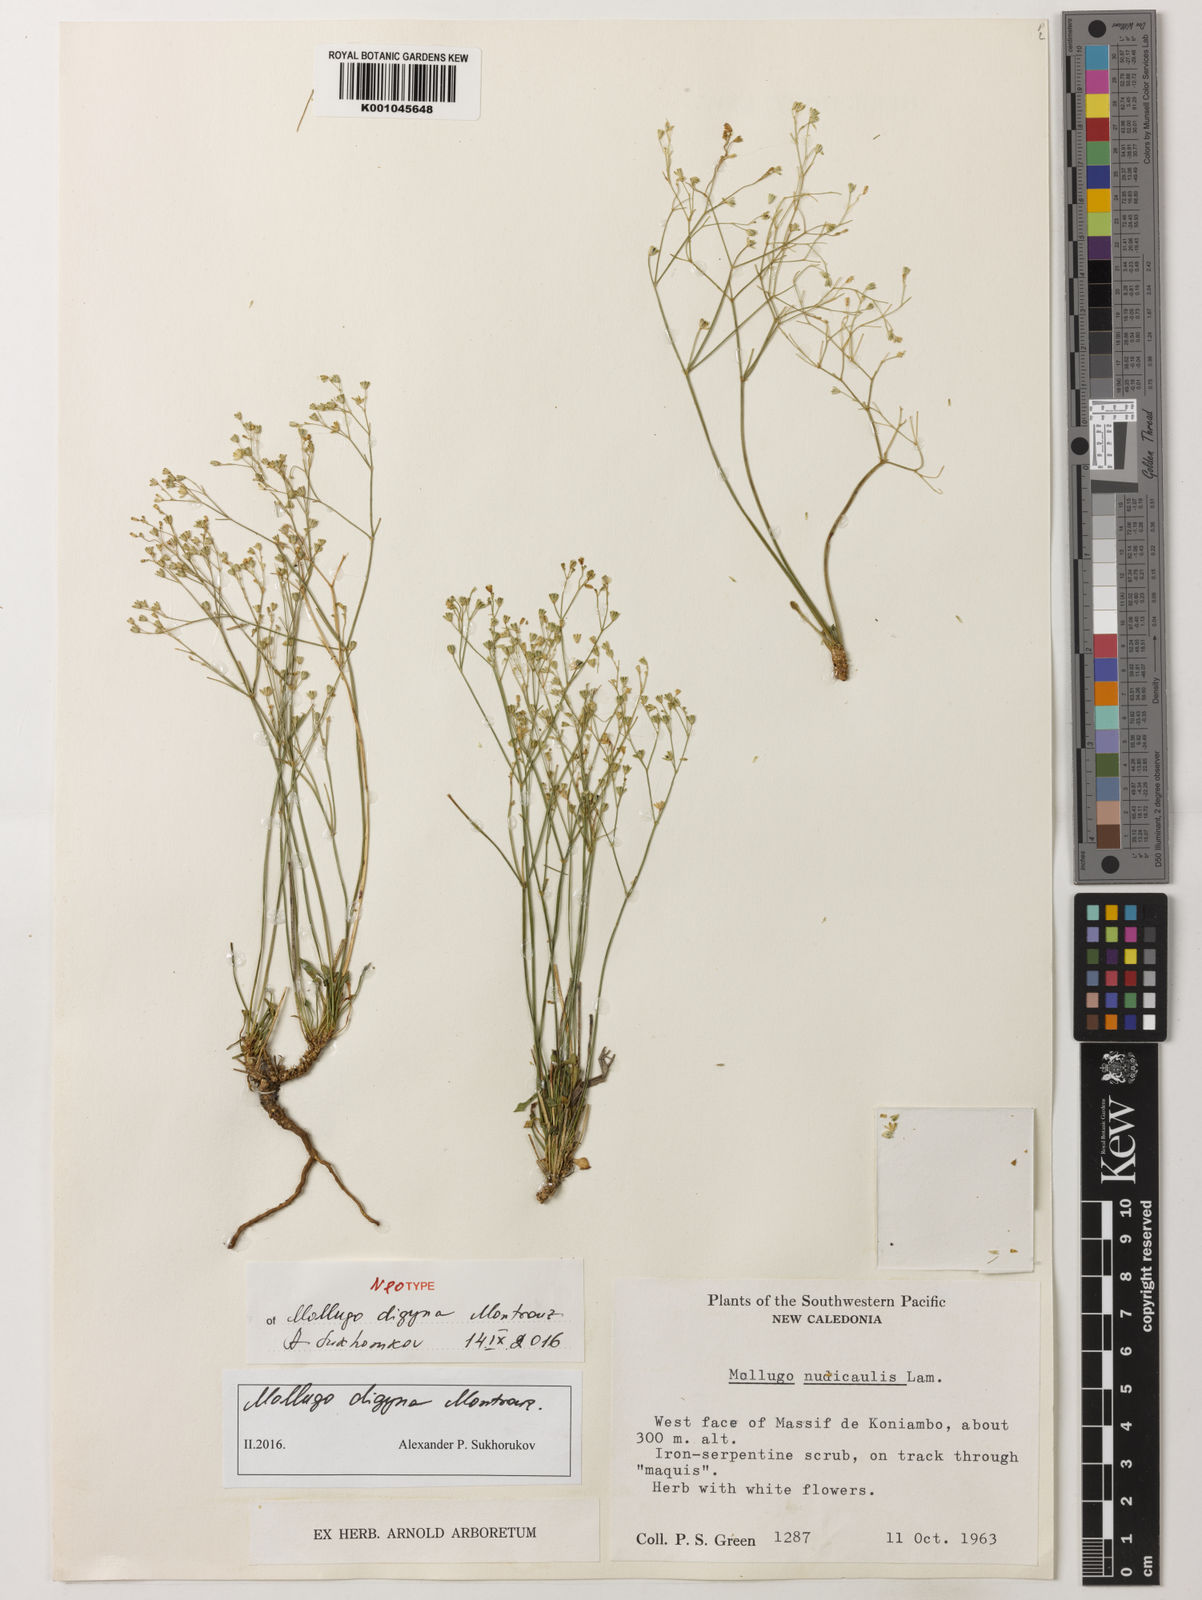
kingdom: Plantae
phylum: Tracheophyta
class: Magnoliopsida
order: Caryophyllales
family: Molluginaceae
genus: Paramollugo
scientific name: Paramollugo digyna
